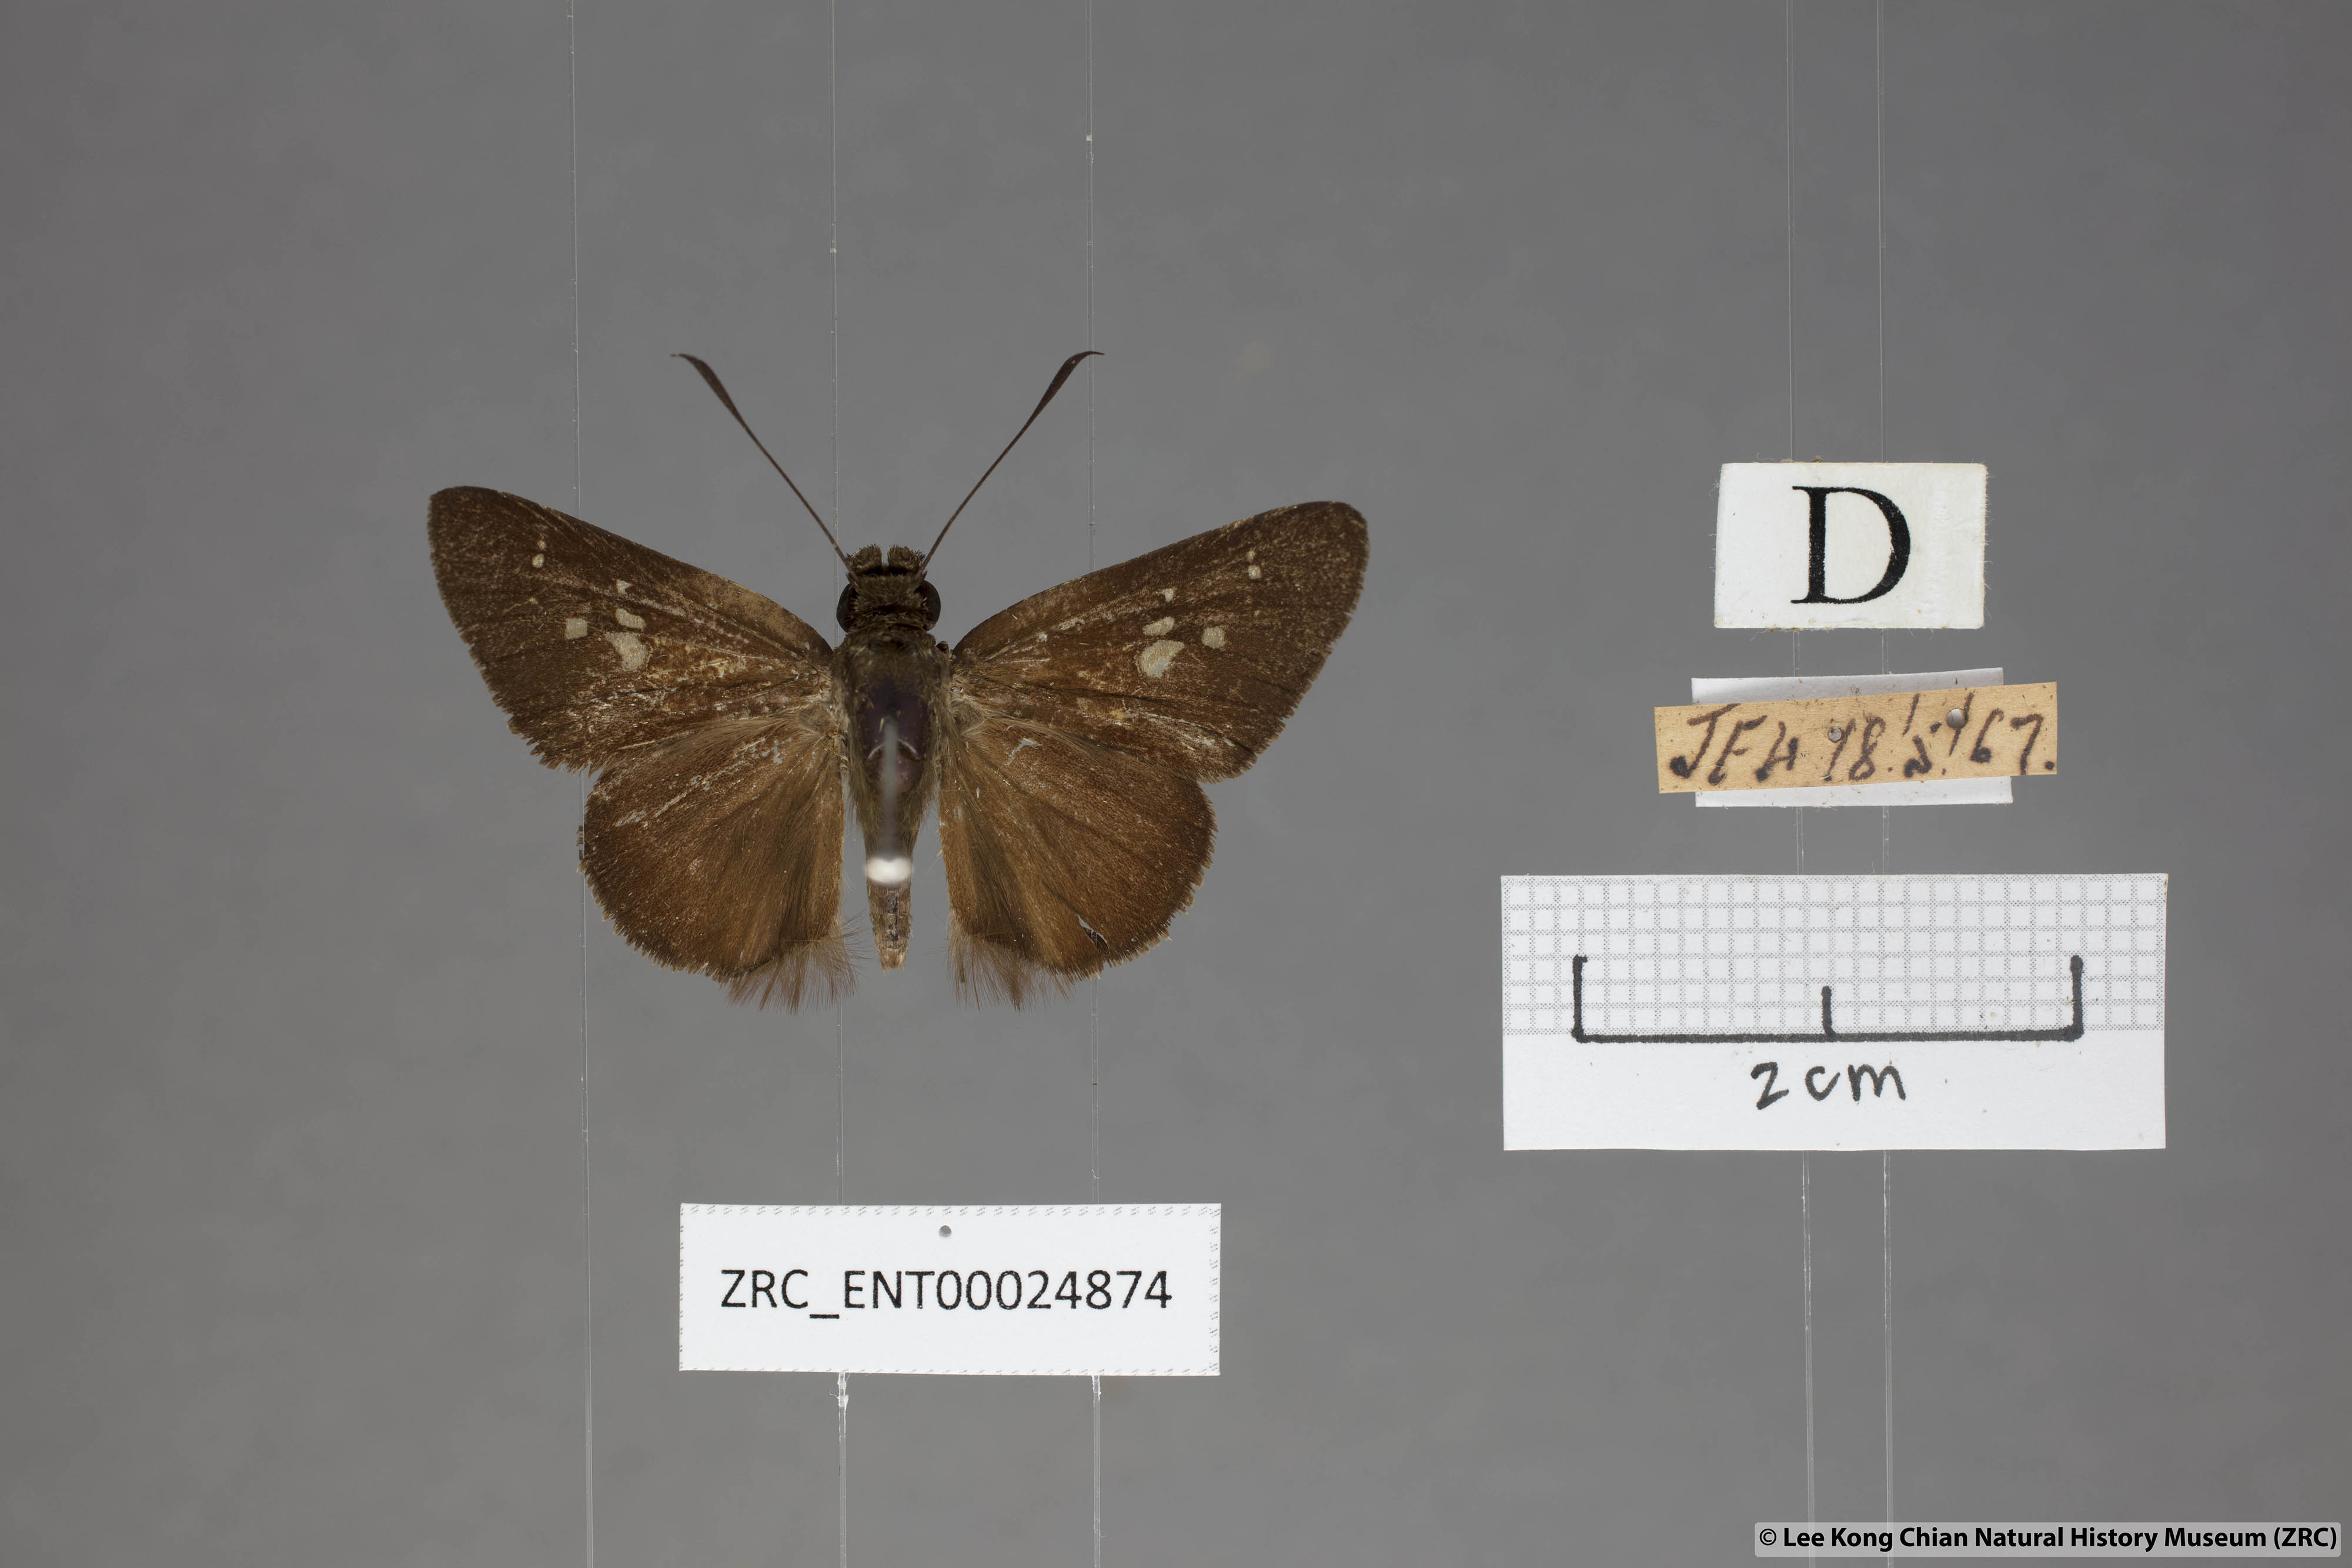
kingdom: Animalia
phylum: Arthropoda
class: Insecta
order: Lepidoptera
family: Hesperiidae
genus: Isma
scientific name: Isma protoclea
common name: Bicolour long-horned flitter
